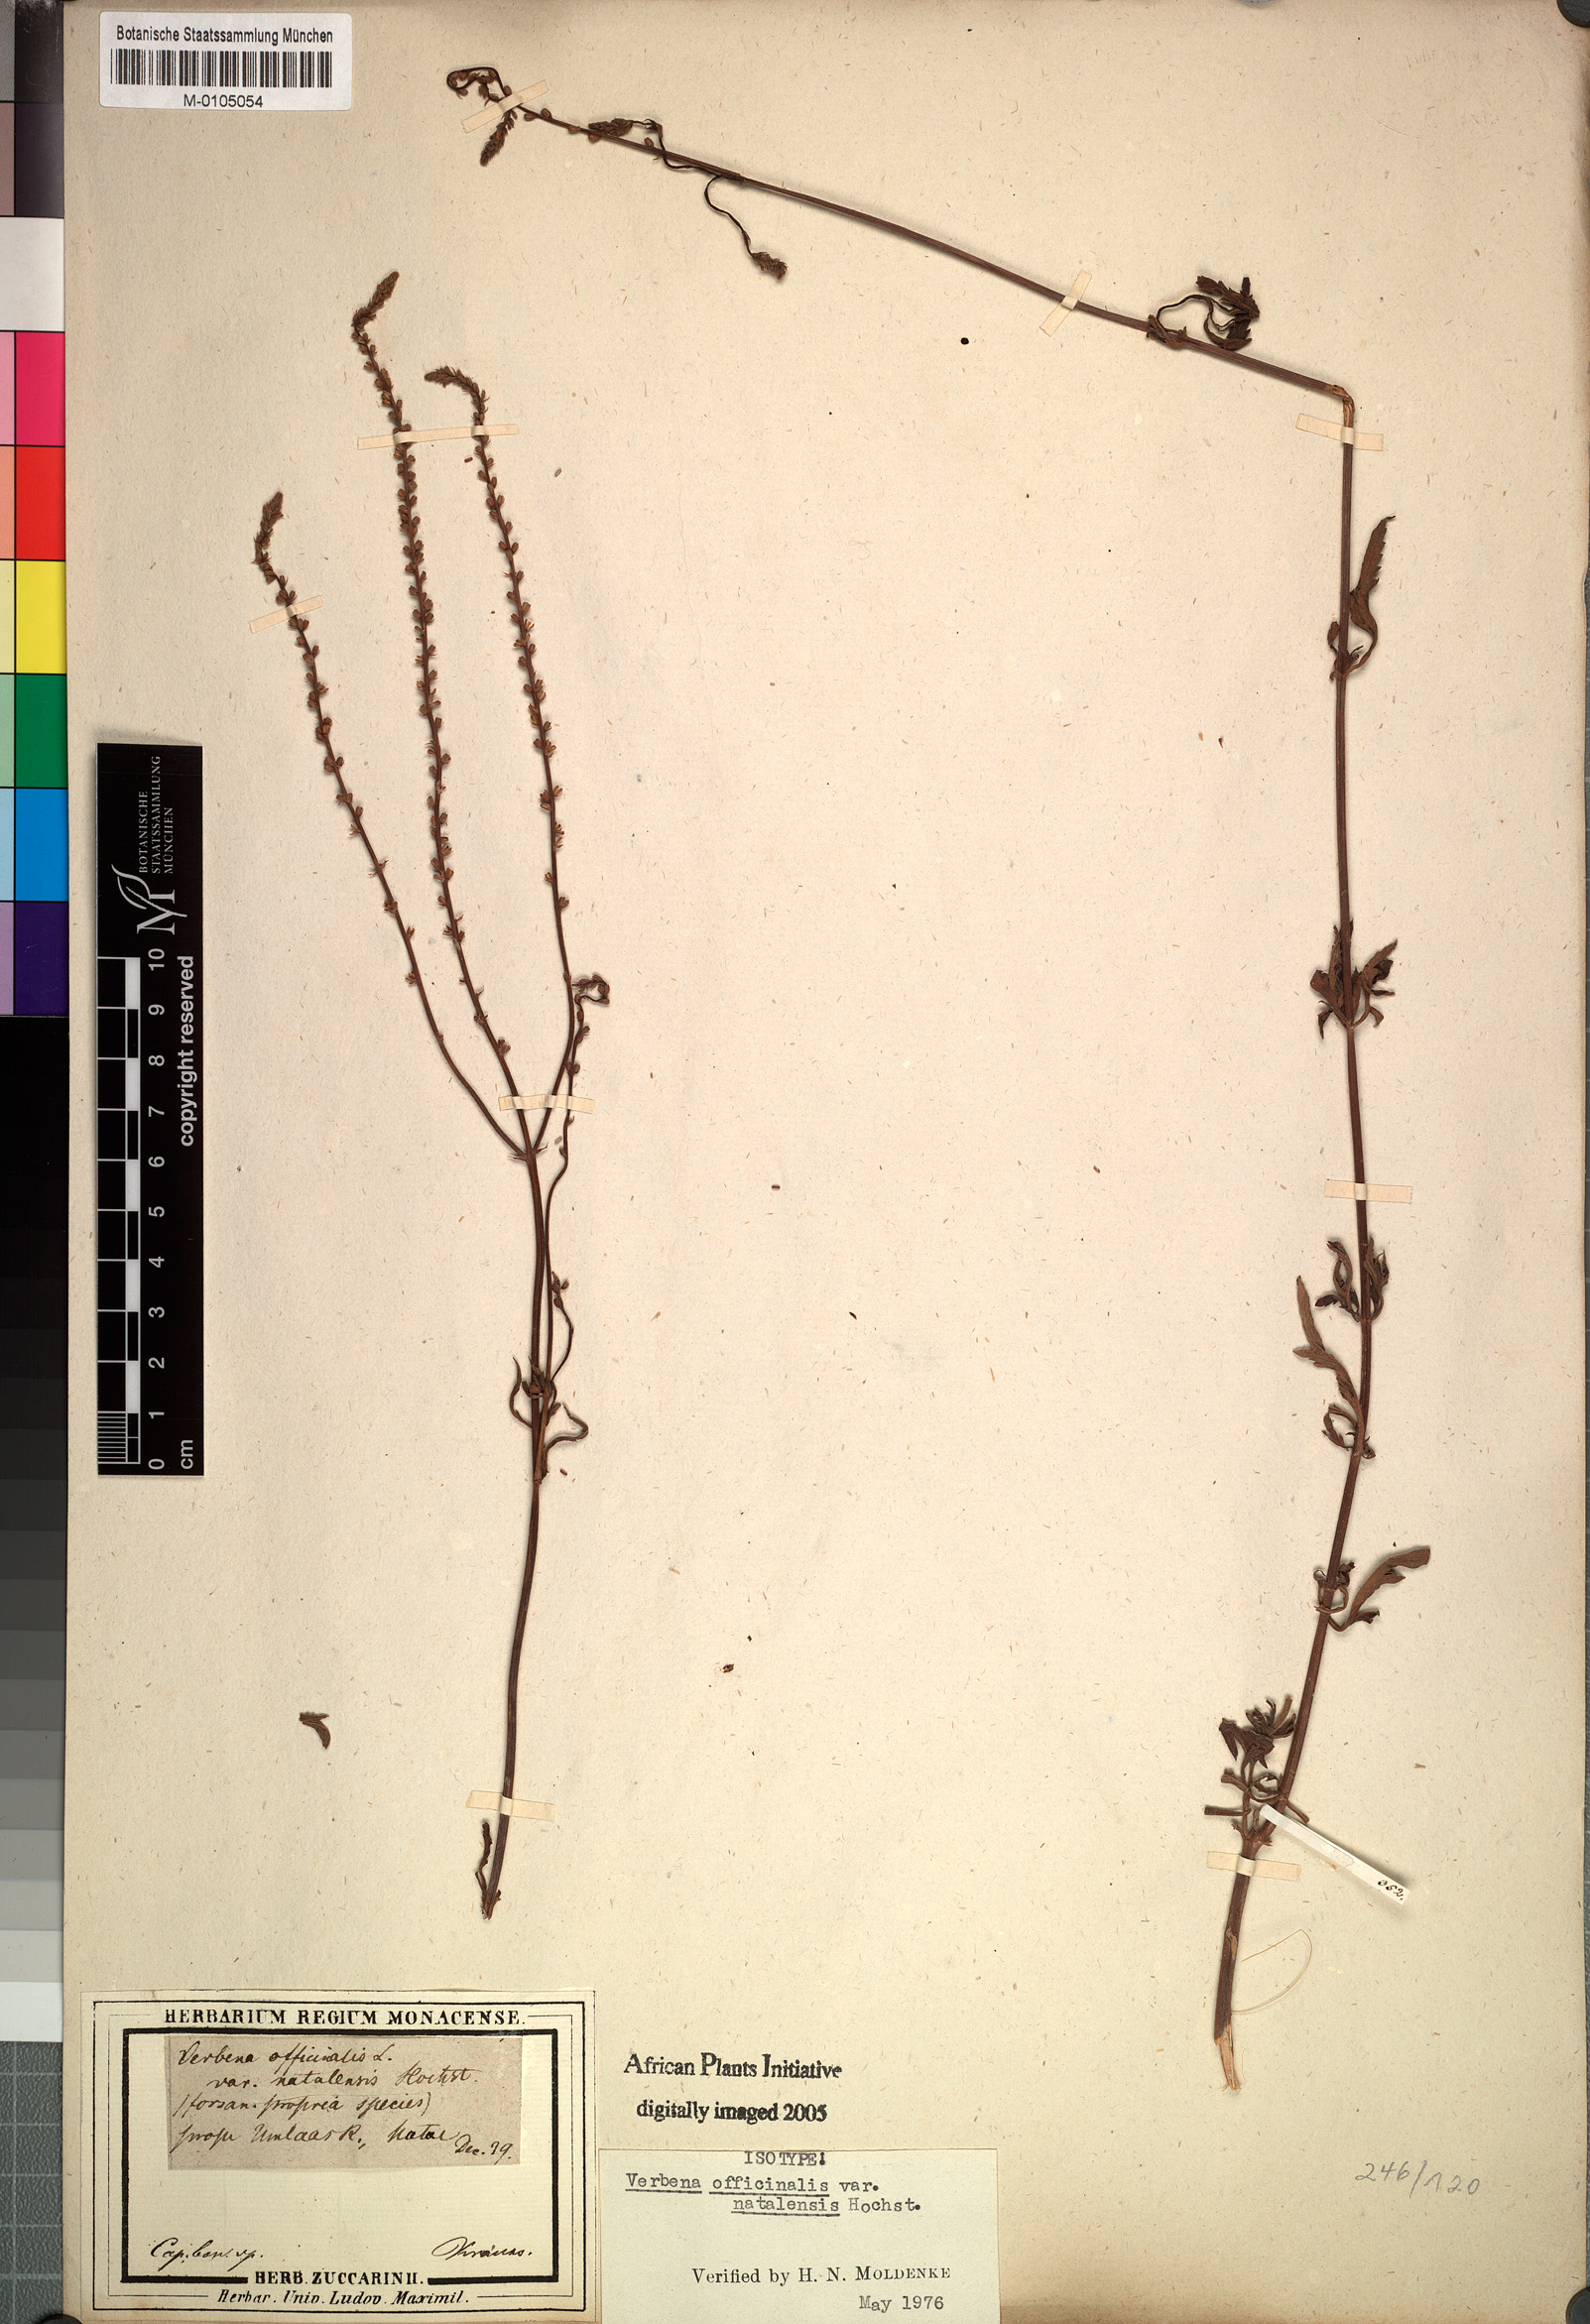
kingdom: Plantae
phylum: Tracheophyta
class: Magnoliopsida
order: Lamiales
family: Verbenaceae
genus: Verbena
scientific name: Verbena officinalis
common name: Vervain
